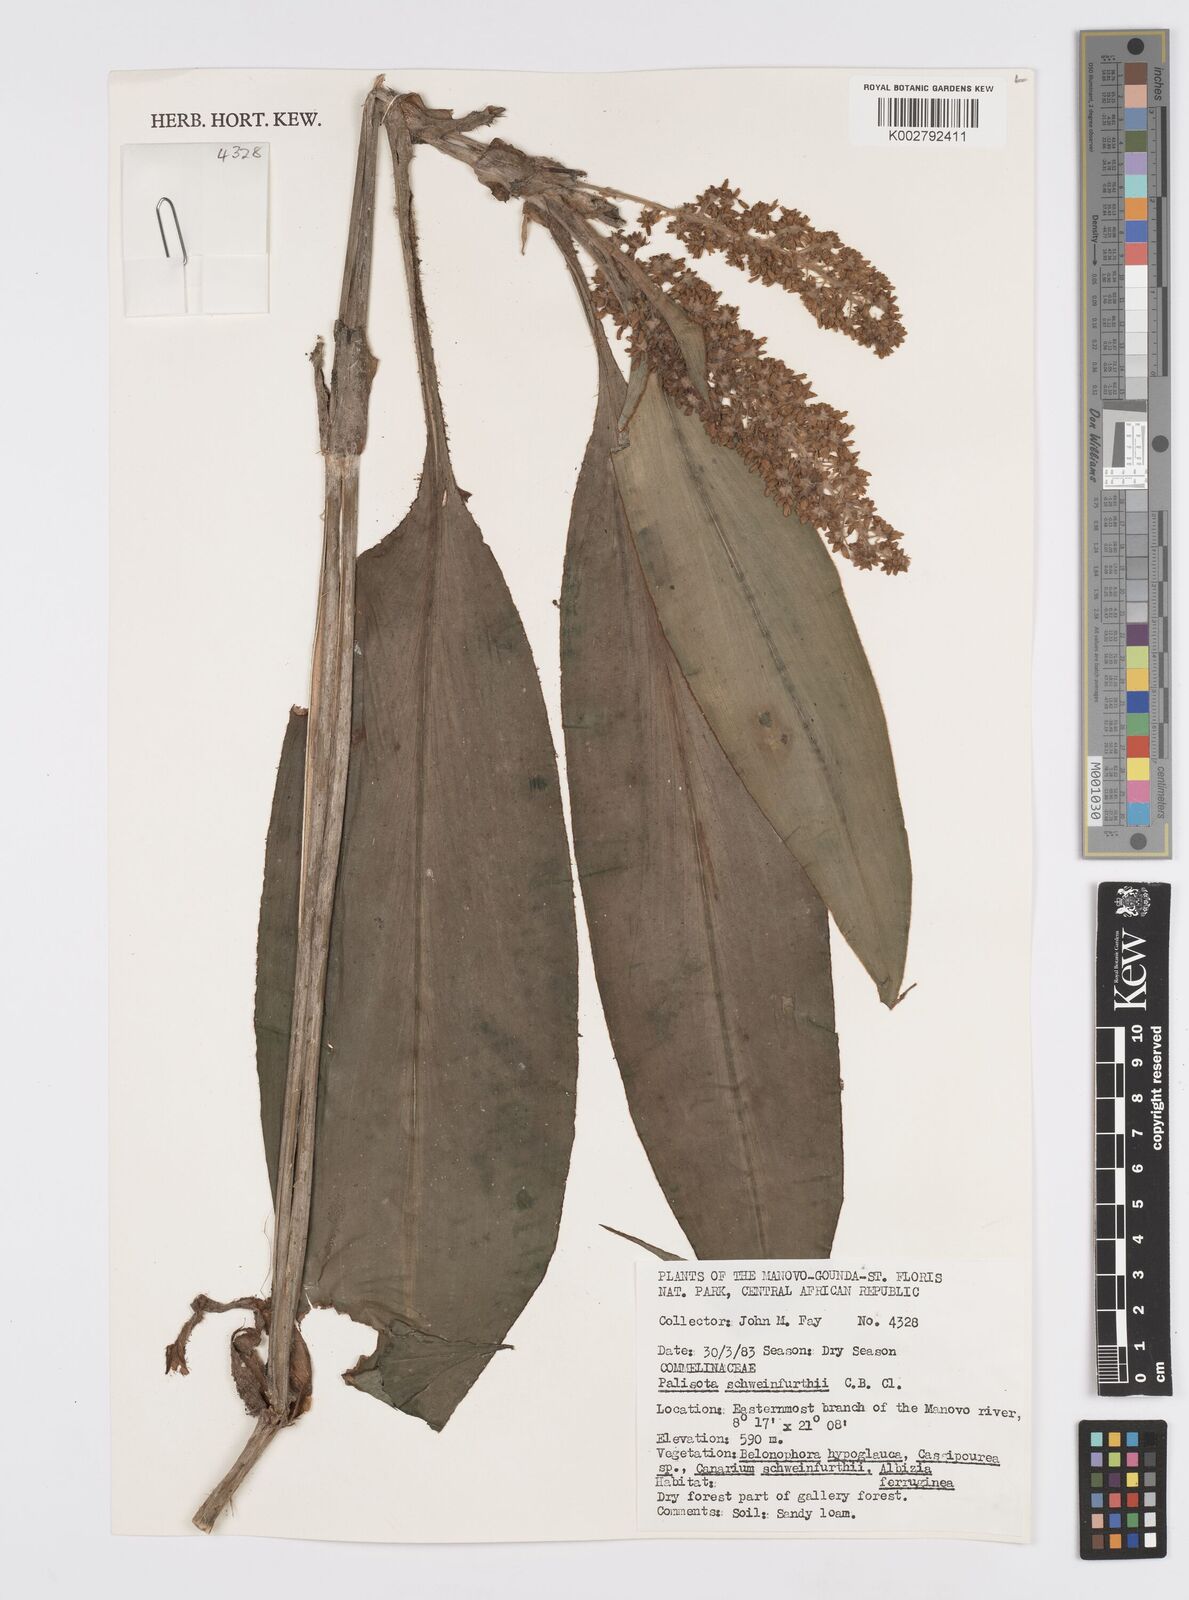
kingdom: Plantae
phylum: Tracheophyta
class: Liliopsida
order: Commelinales
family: Commelinaceae
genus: Palisota
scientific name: Palisota schweinfurthii
